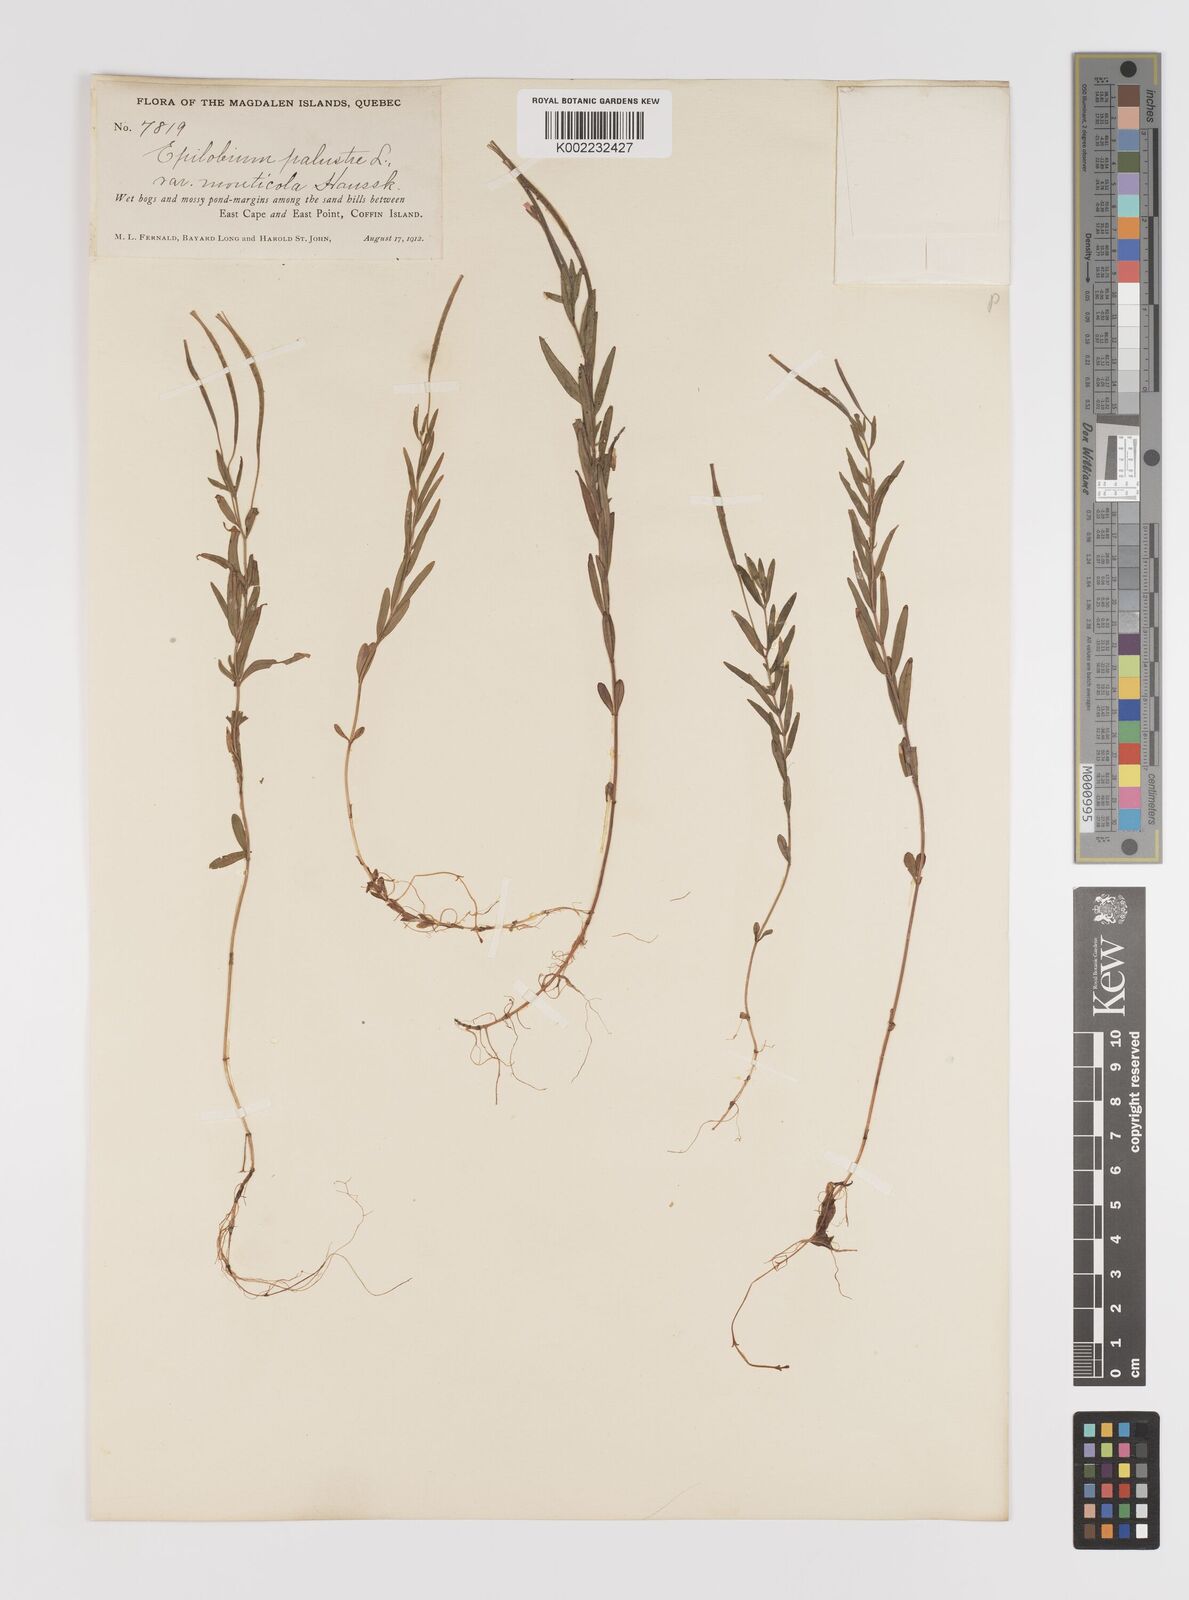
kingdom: Plantae
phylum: Tracheophyta
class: Magnoliopsida
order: Myrtales
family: Onagraceae
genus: Epilobium
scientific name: Epilobium palustre
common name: Marsh willowherb
